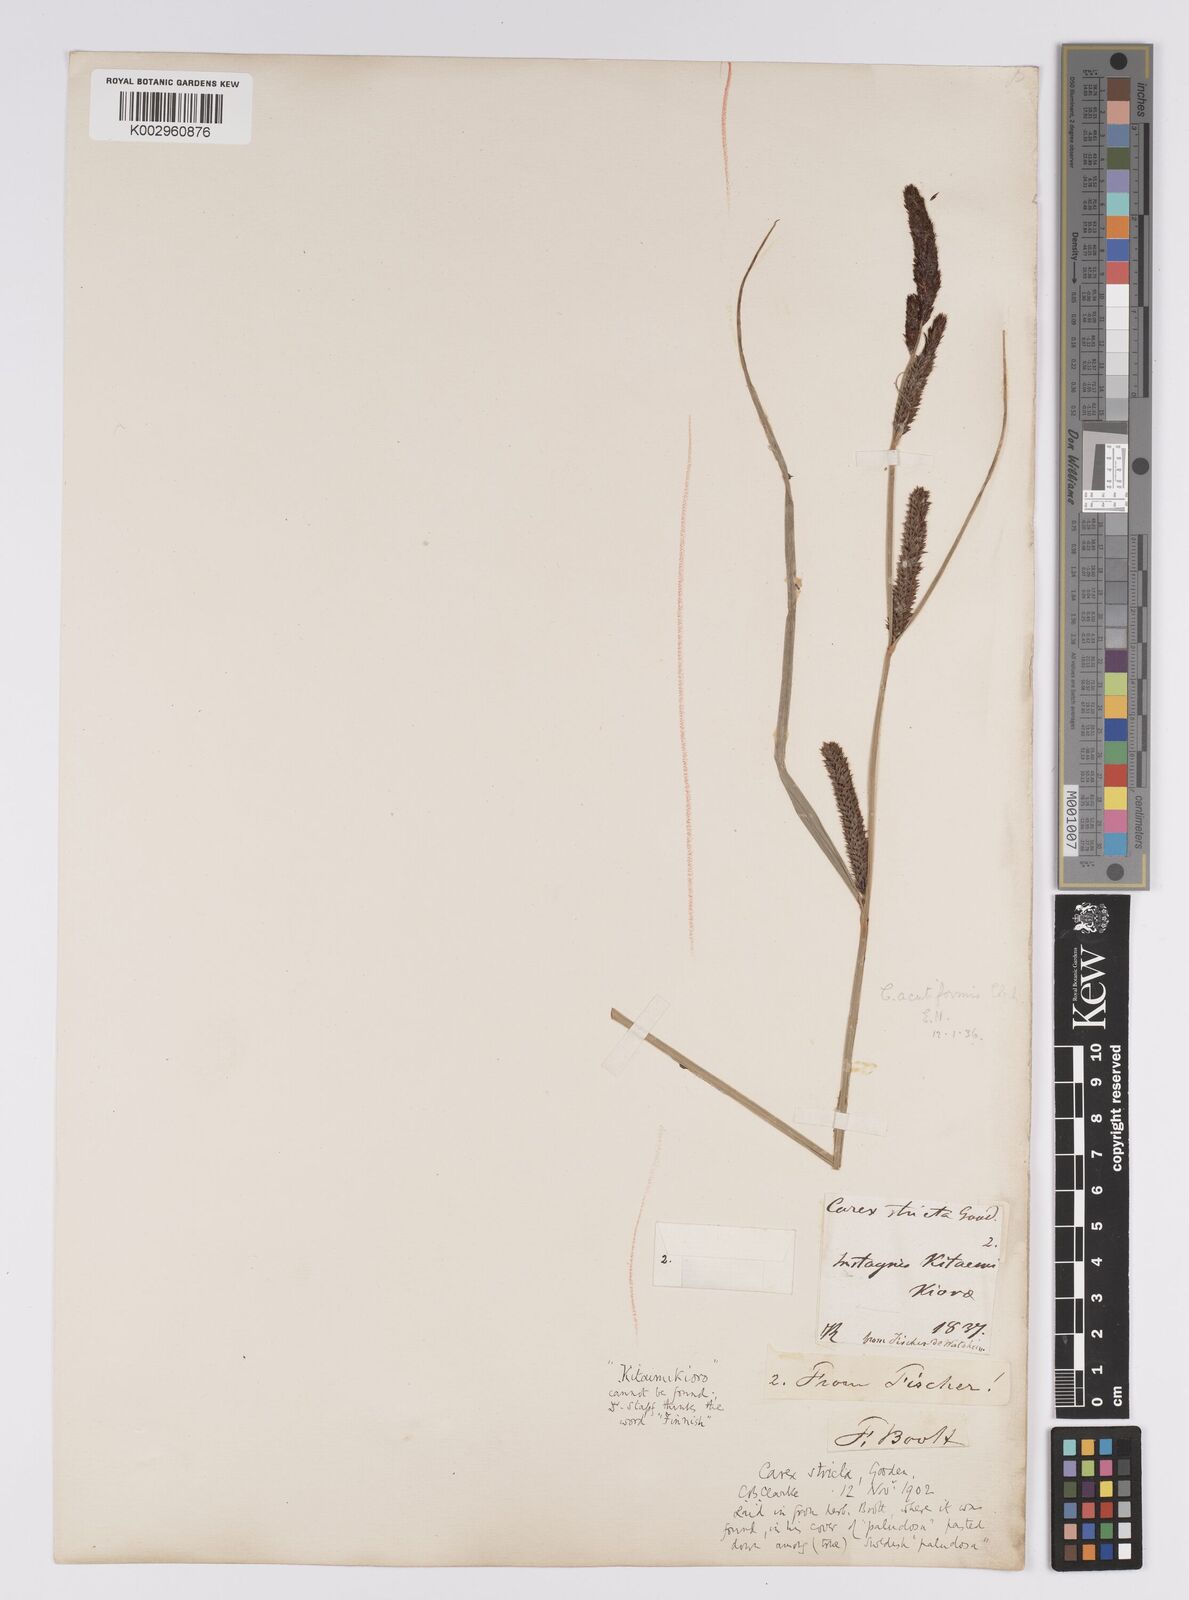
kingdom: Plantae
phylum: Tracheophyta
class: Liliopsida
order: Poales
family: Cyperaceae
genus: Carex
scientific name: Carex acutiformis
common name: Lesser pond-sedge
